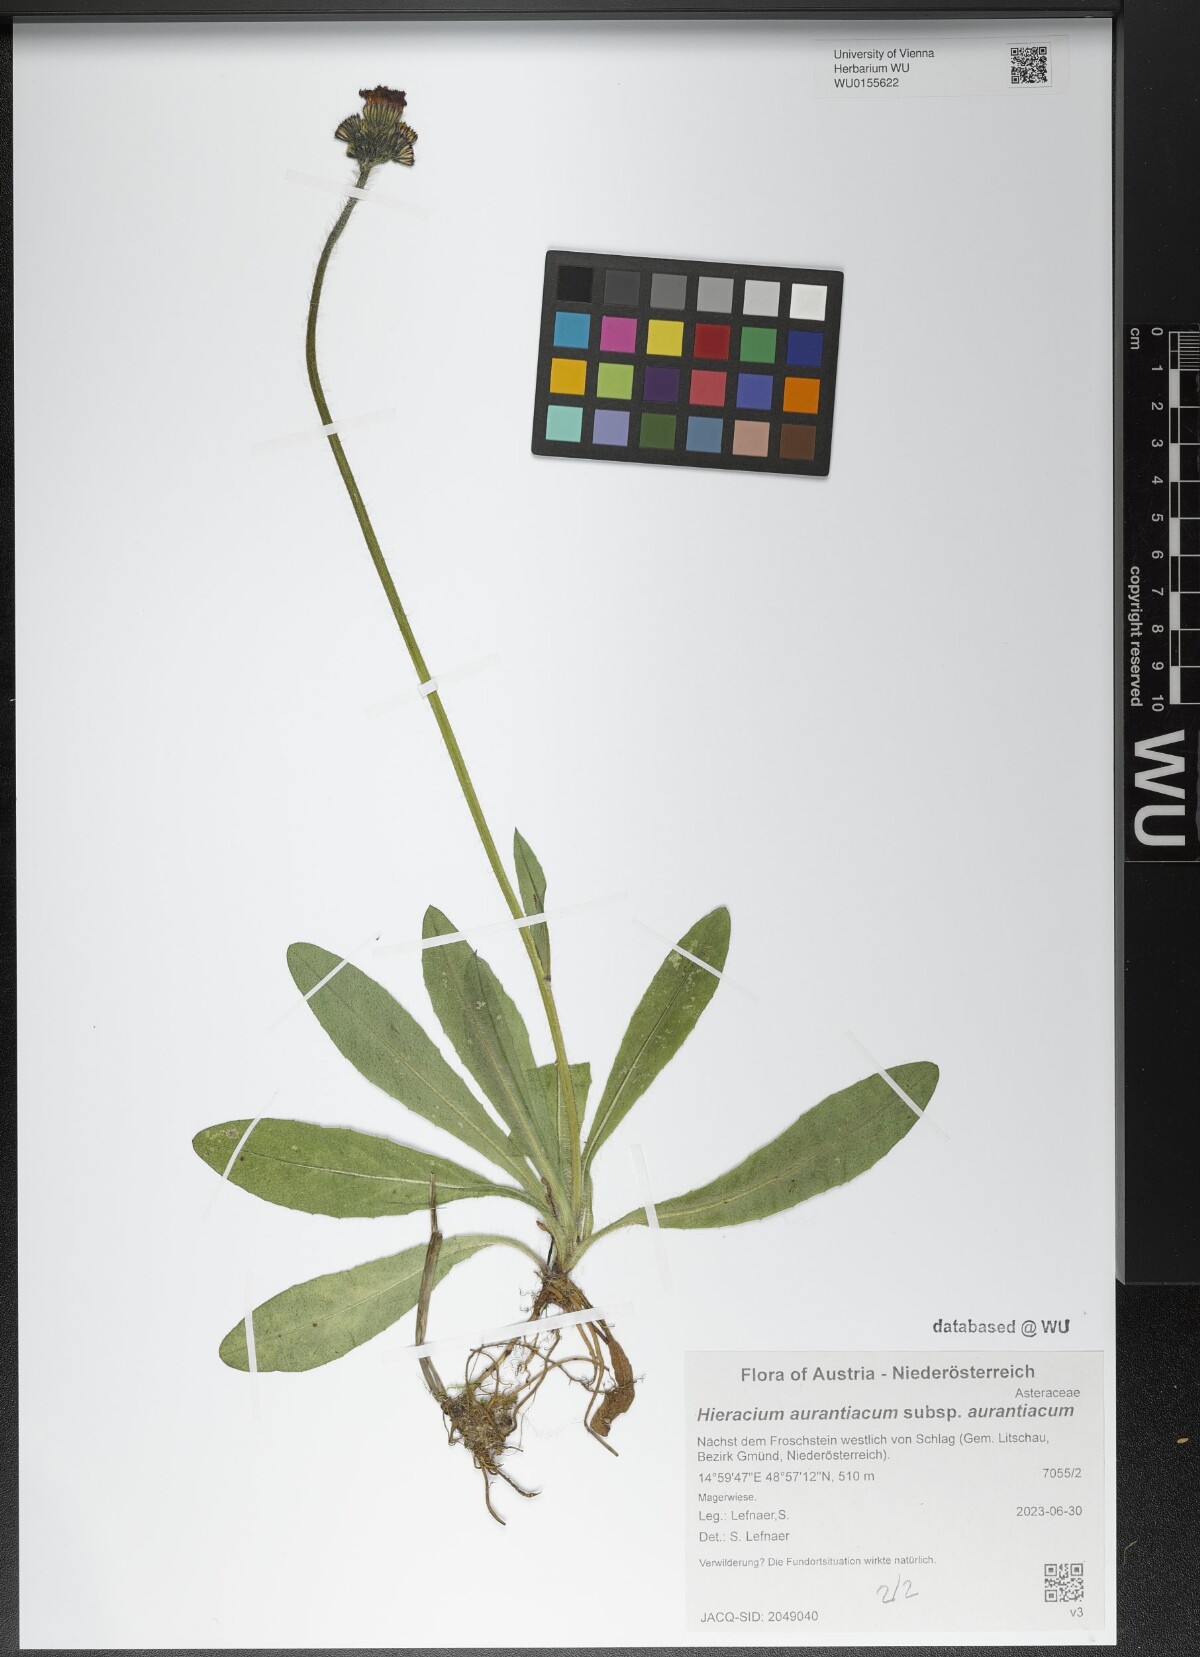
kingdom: Plantae
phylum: Tracheophyta
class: Magnoliopsida
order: Asterales
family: Asteraceae
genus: Pilosella
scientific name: Pilosella aurantiaca
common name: Fox-and-cubs
